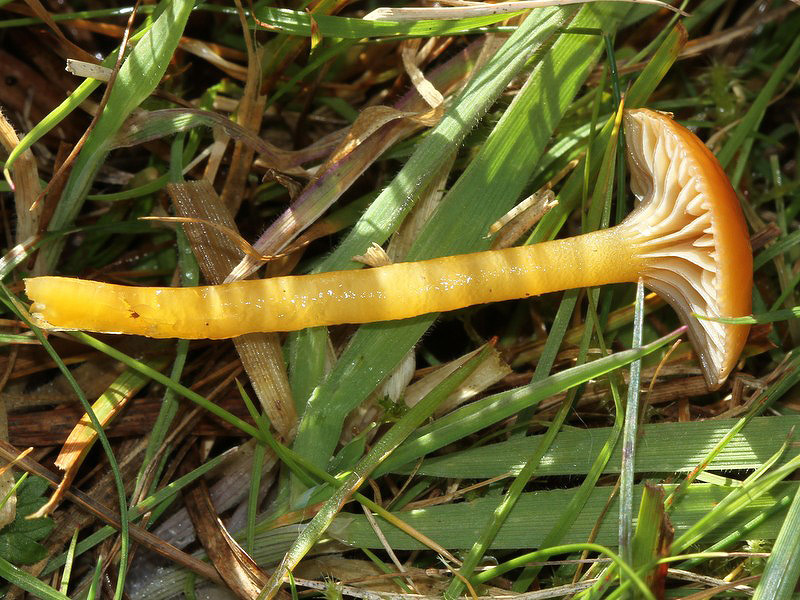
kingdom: Fungi
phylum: Basidiomycota
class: Agaricomycetes
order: Agaricales
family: Hygrophoraceae
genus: Gliophorus
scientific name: Gliophorus laetus
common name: brusk-vokshat
